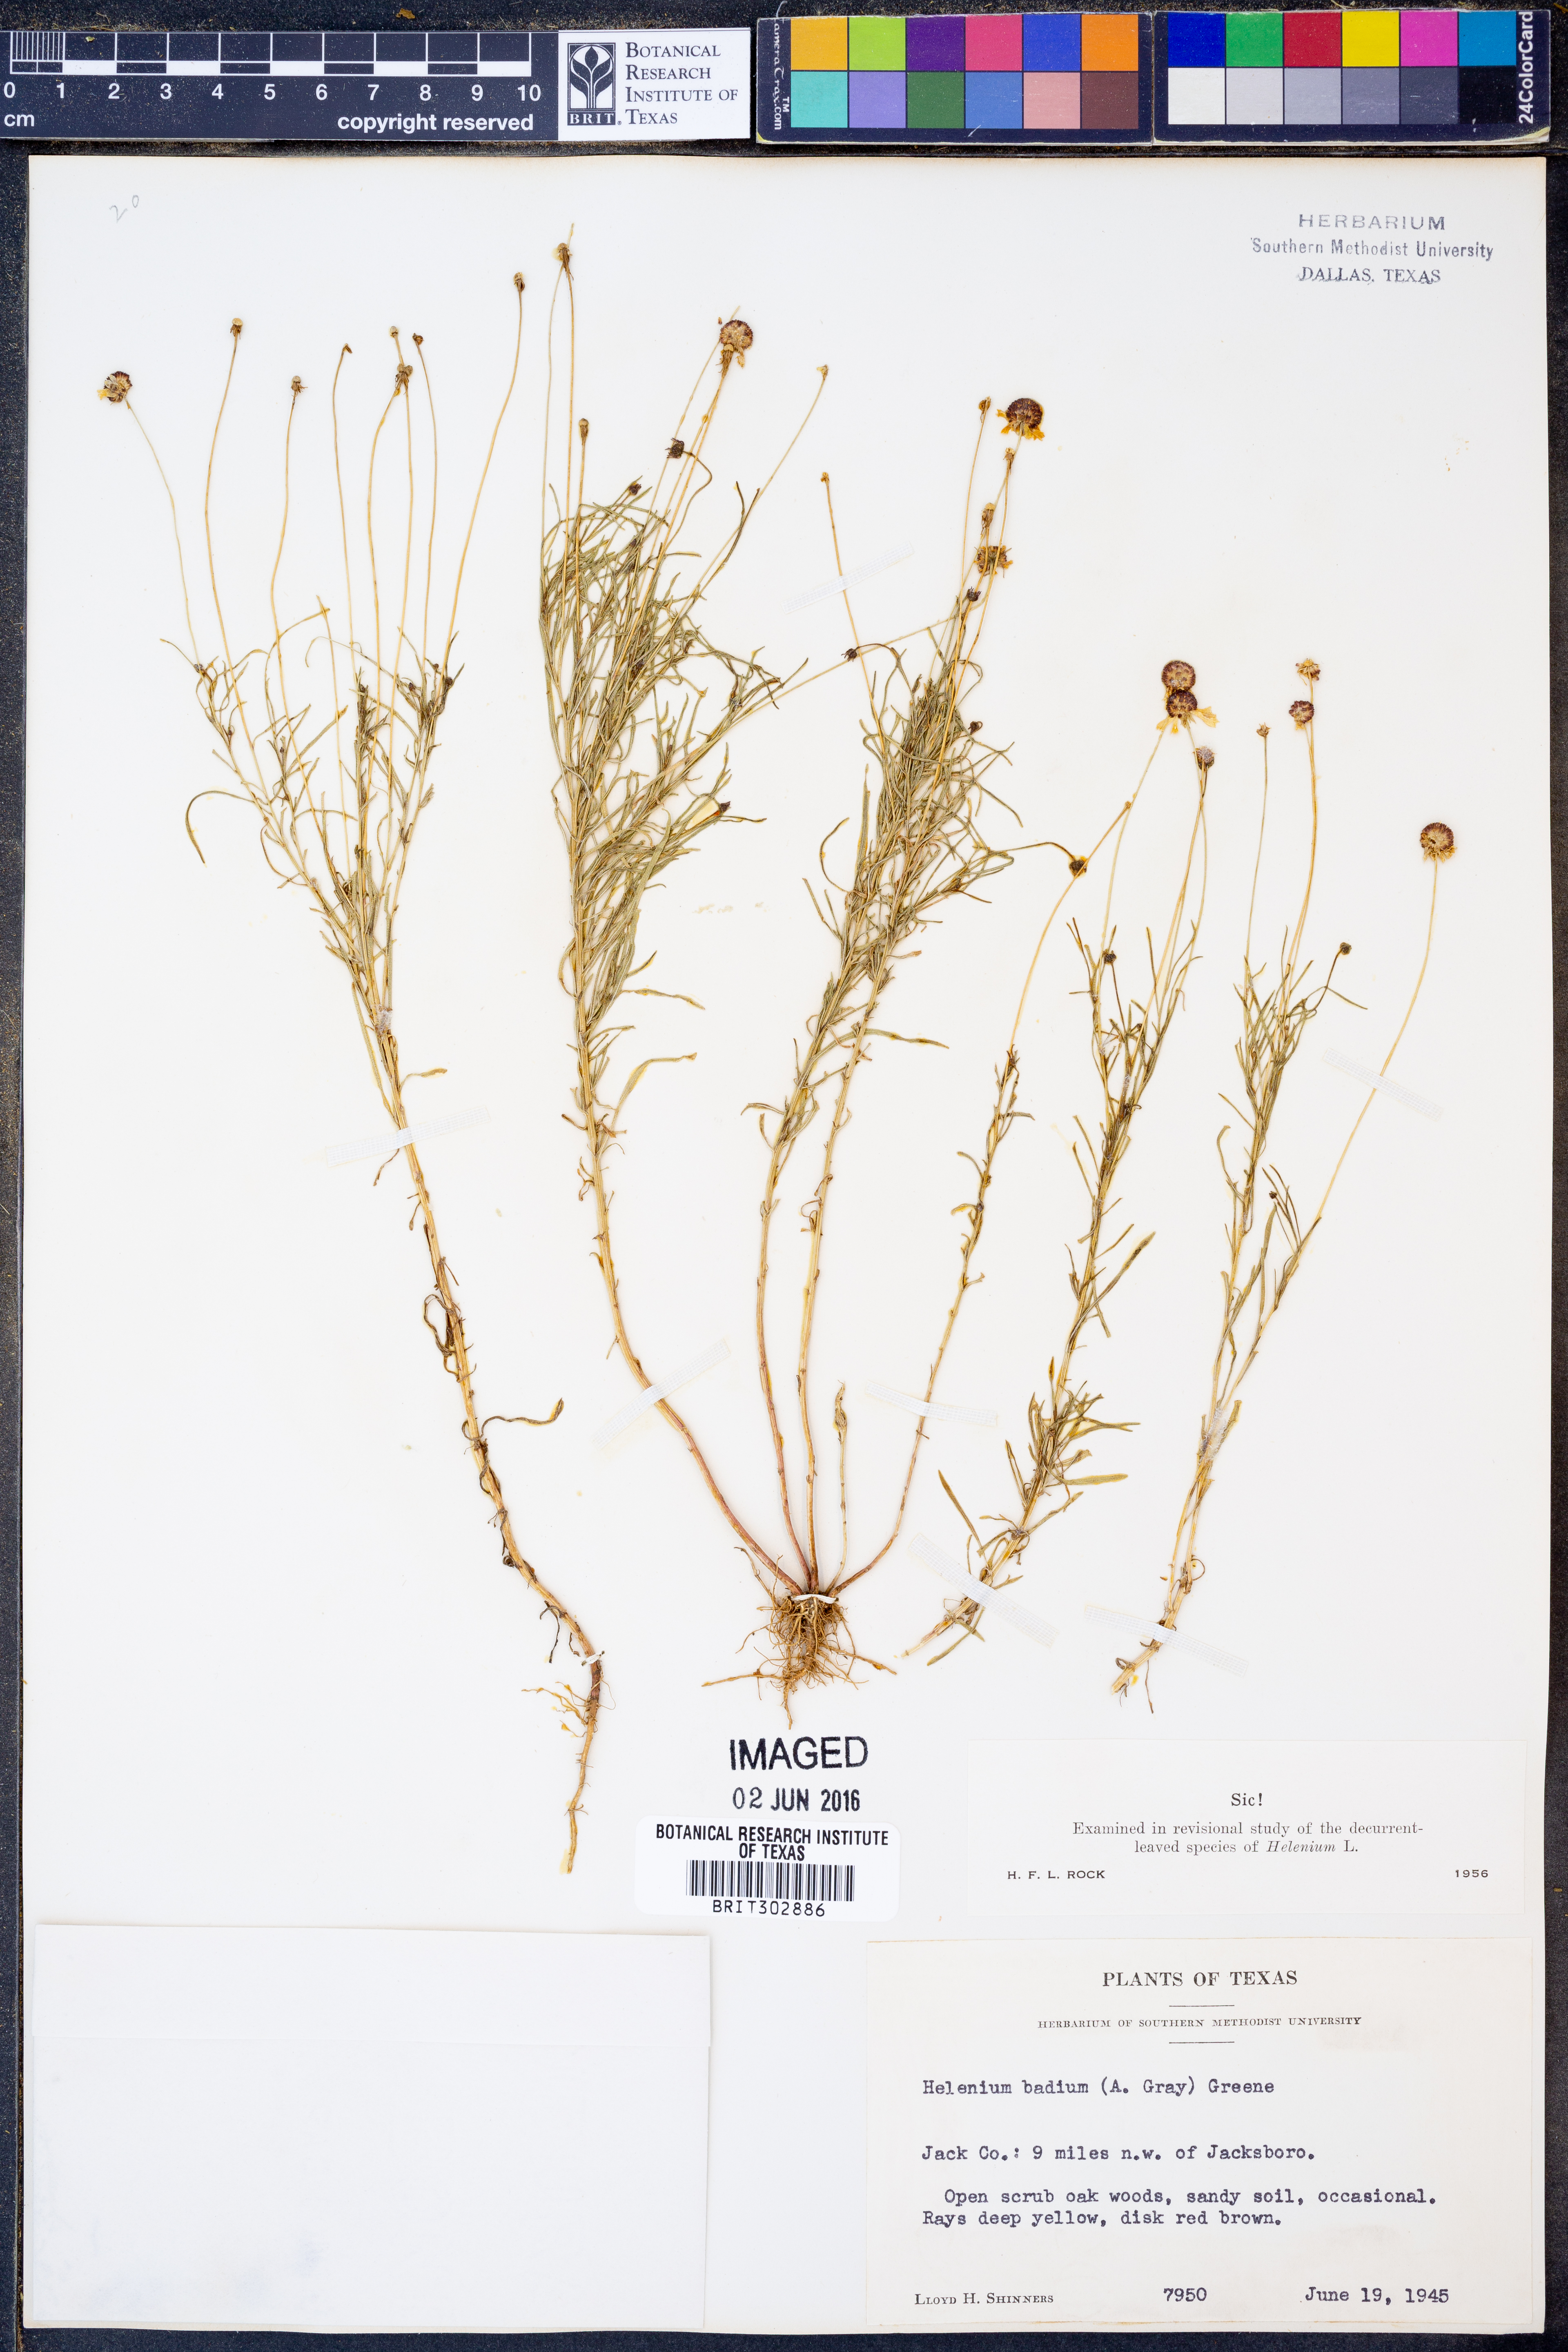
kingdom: Plantae
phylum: Tracheophyta
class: Magnoliopsida
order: Asterales
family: Asteraceae
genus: Helenium
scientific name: Helenium amarum
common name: Bitter sneezeweed
